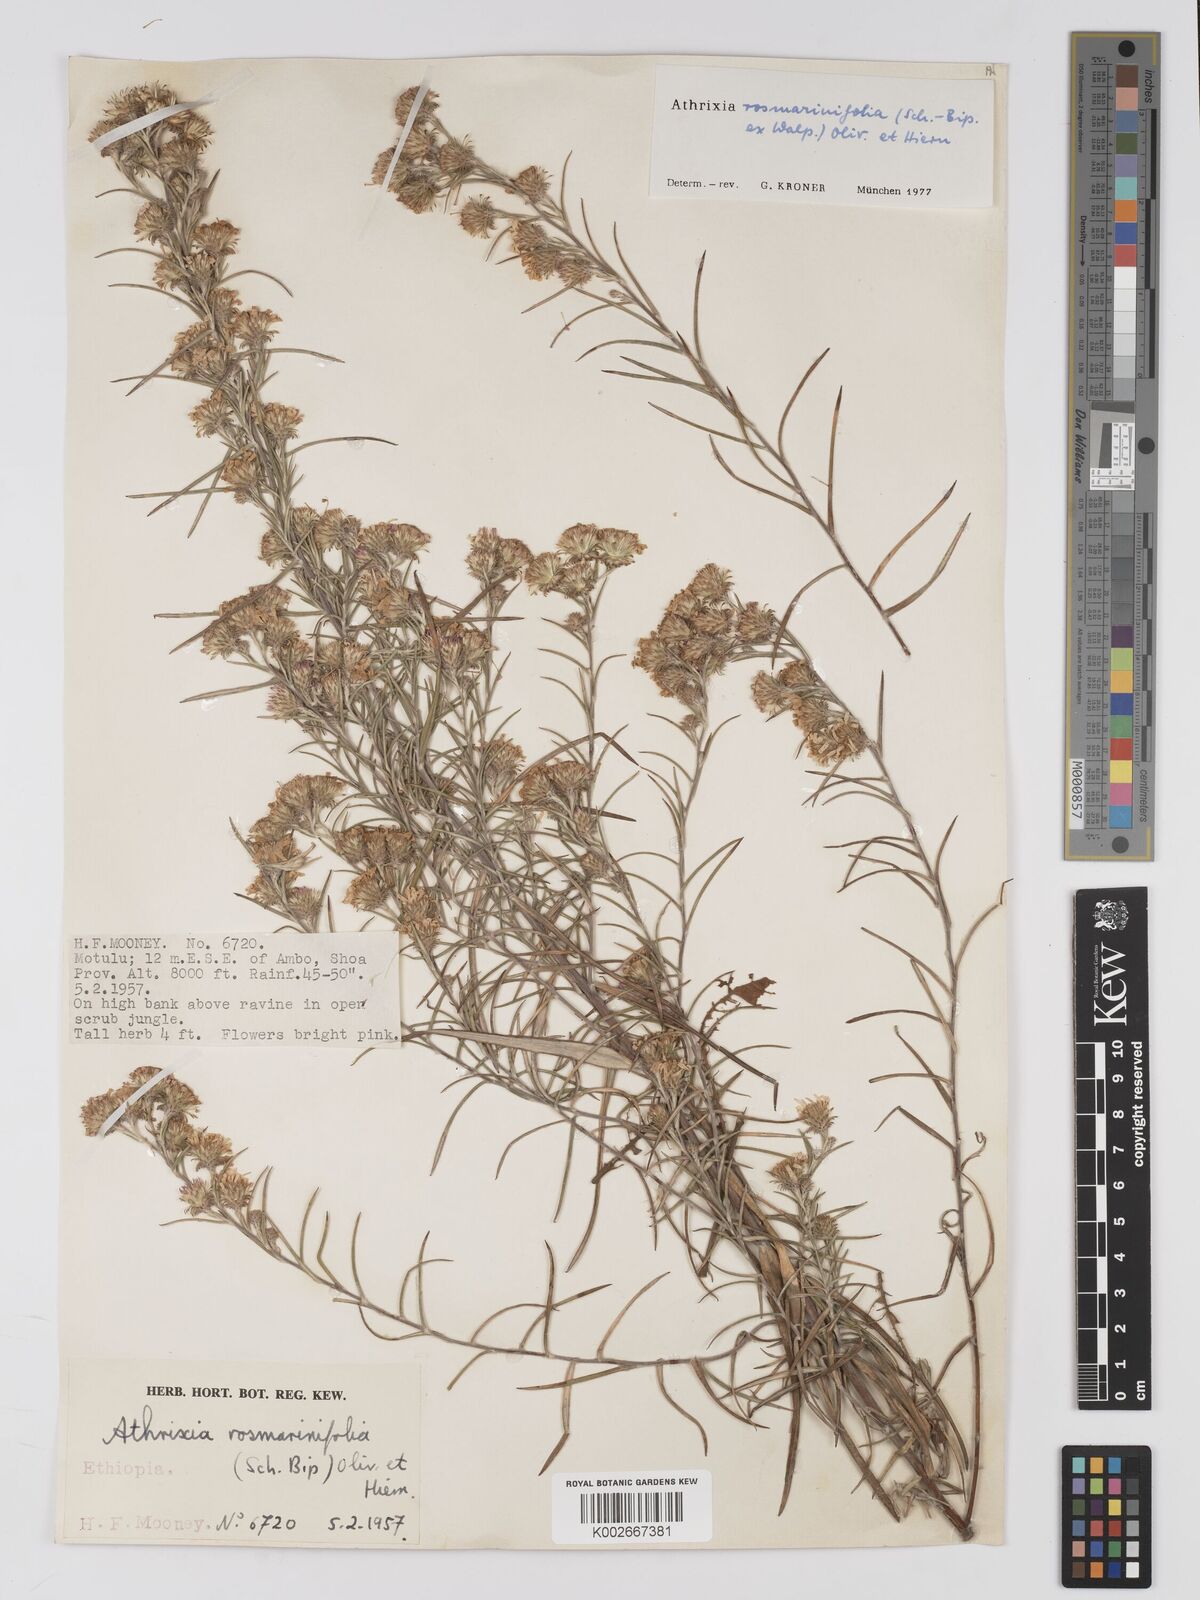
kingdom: Plantae
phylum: Tracheophyta
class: Magnoliopsida
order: Asterales
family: Asteraceae
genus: Athrixia
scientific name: Athrixia rosmarinifolia
